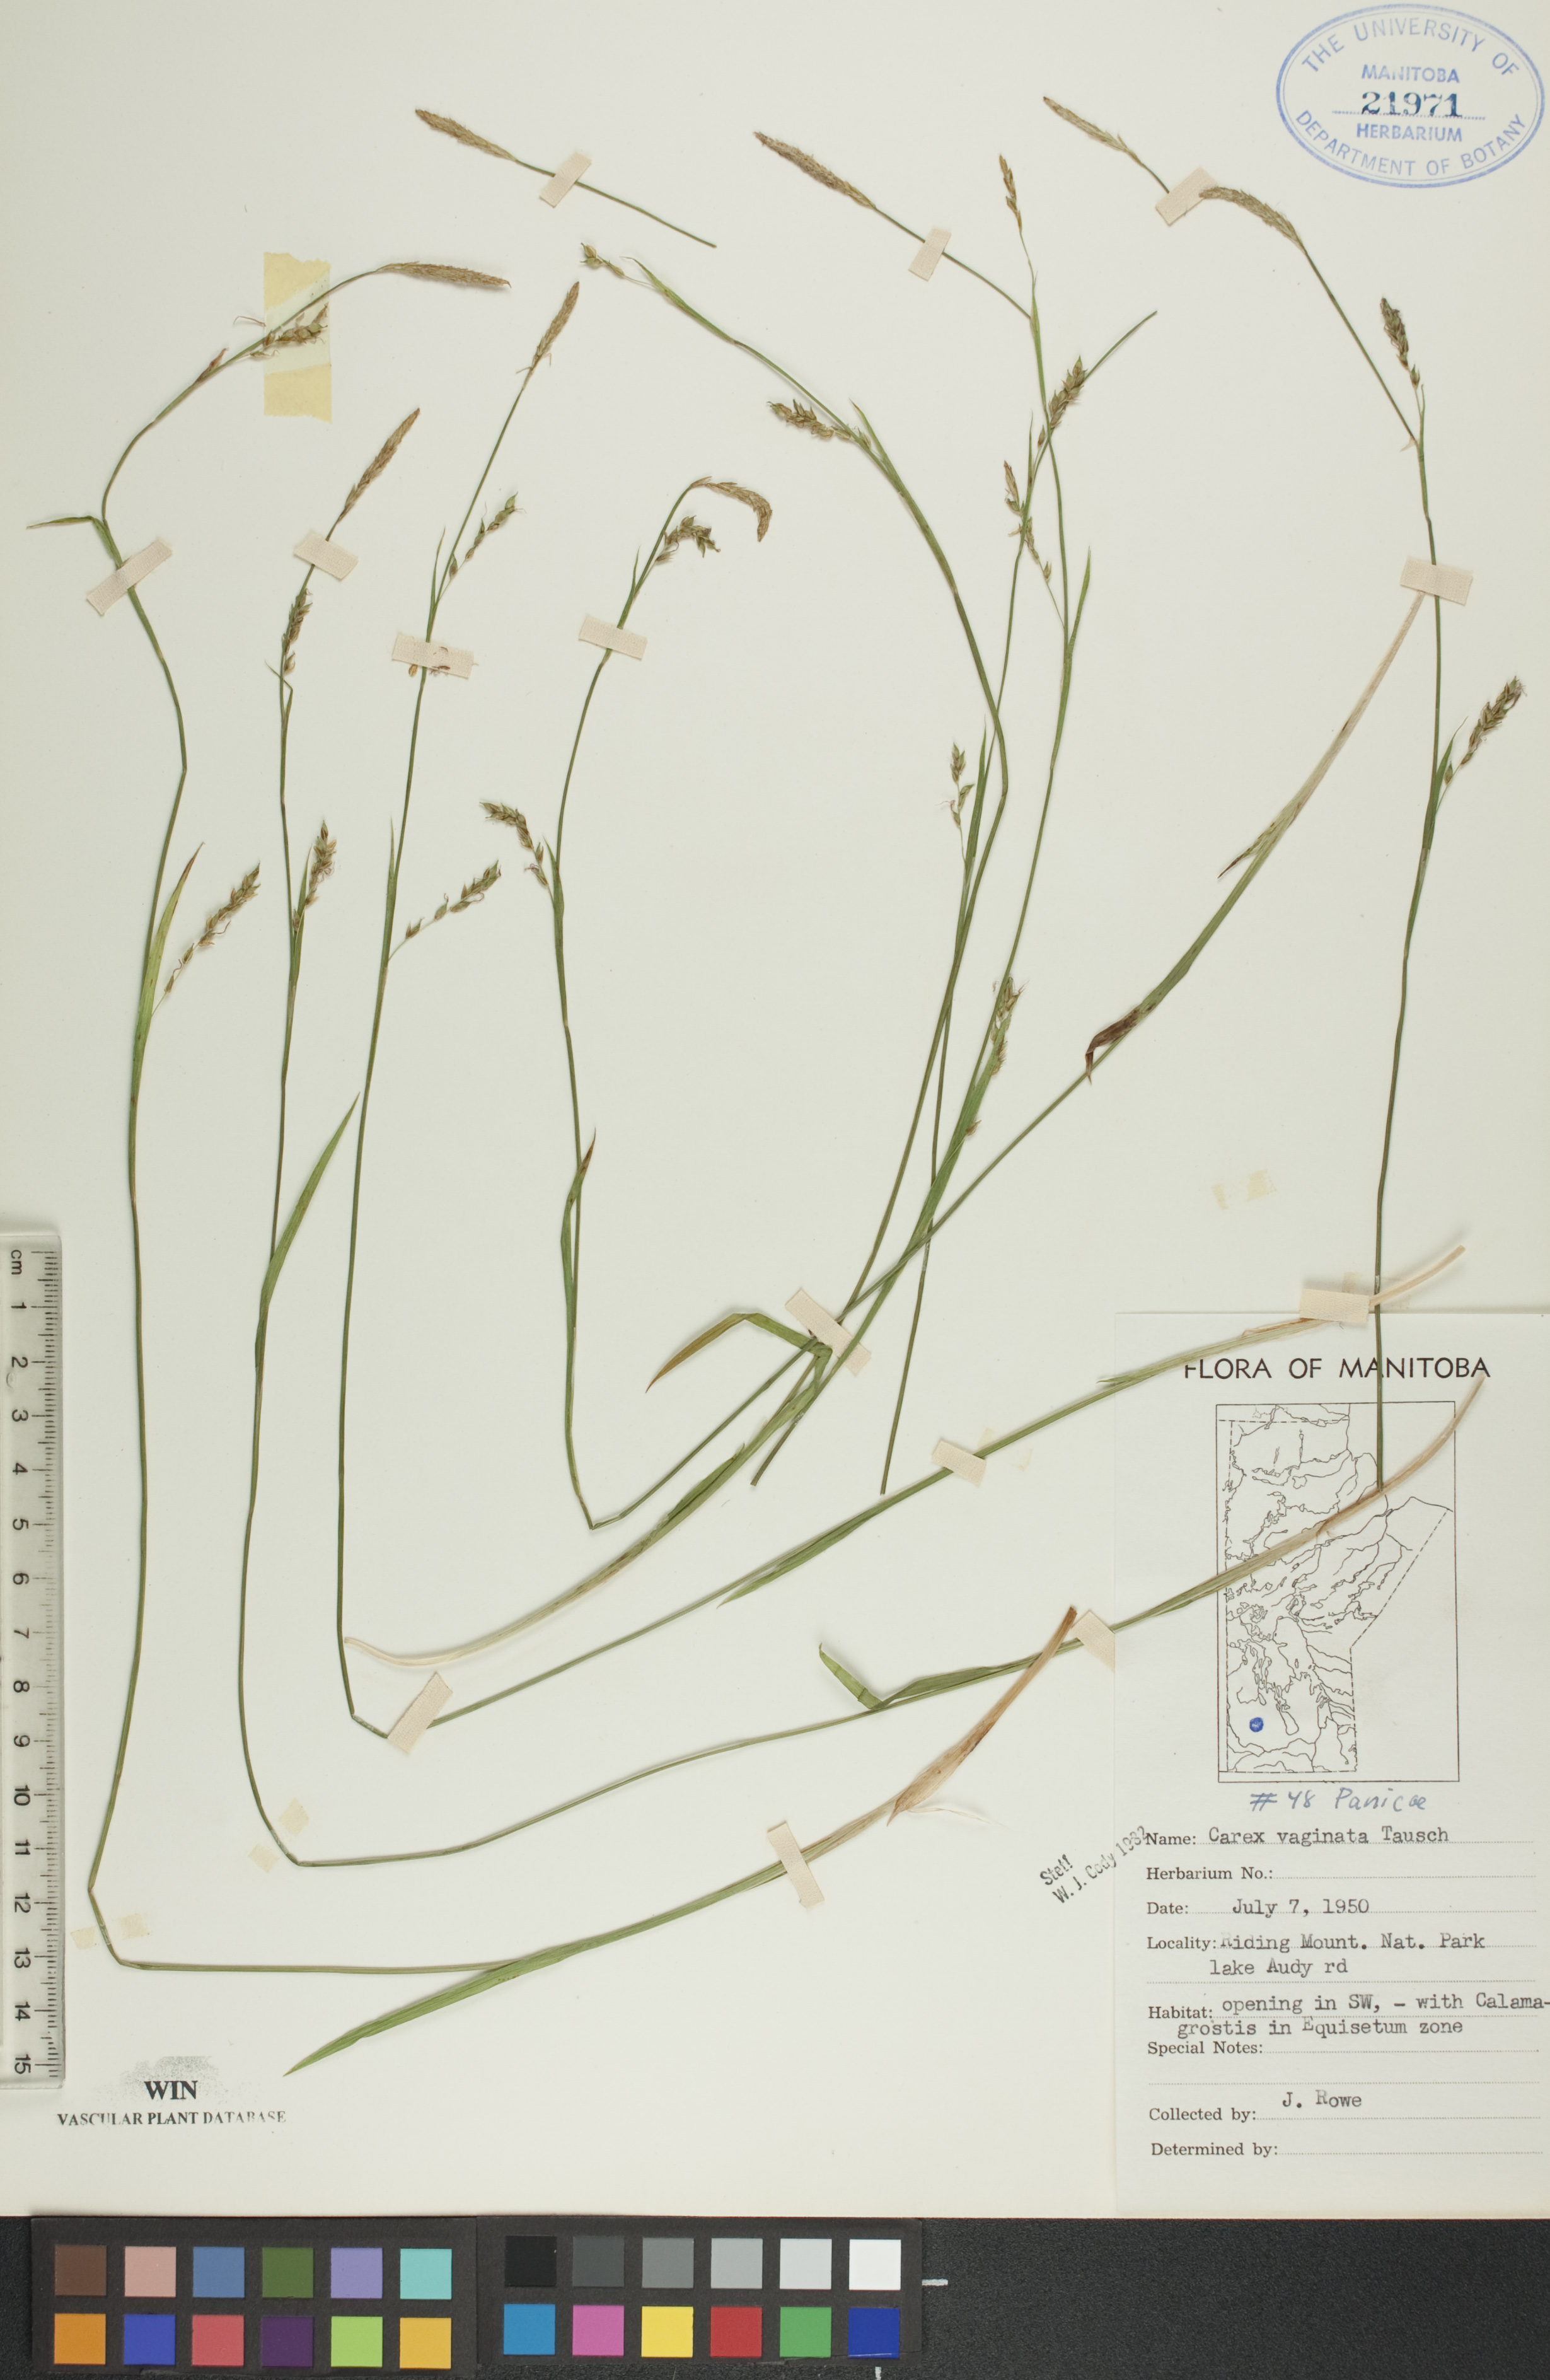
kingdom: Plantae
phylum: Tracheophyta
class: Liliopsida
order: Poales
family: Cyperaceae
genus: Carex
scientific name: Carex vaginata
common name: Sheathed sedge
